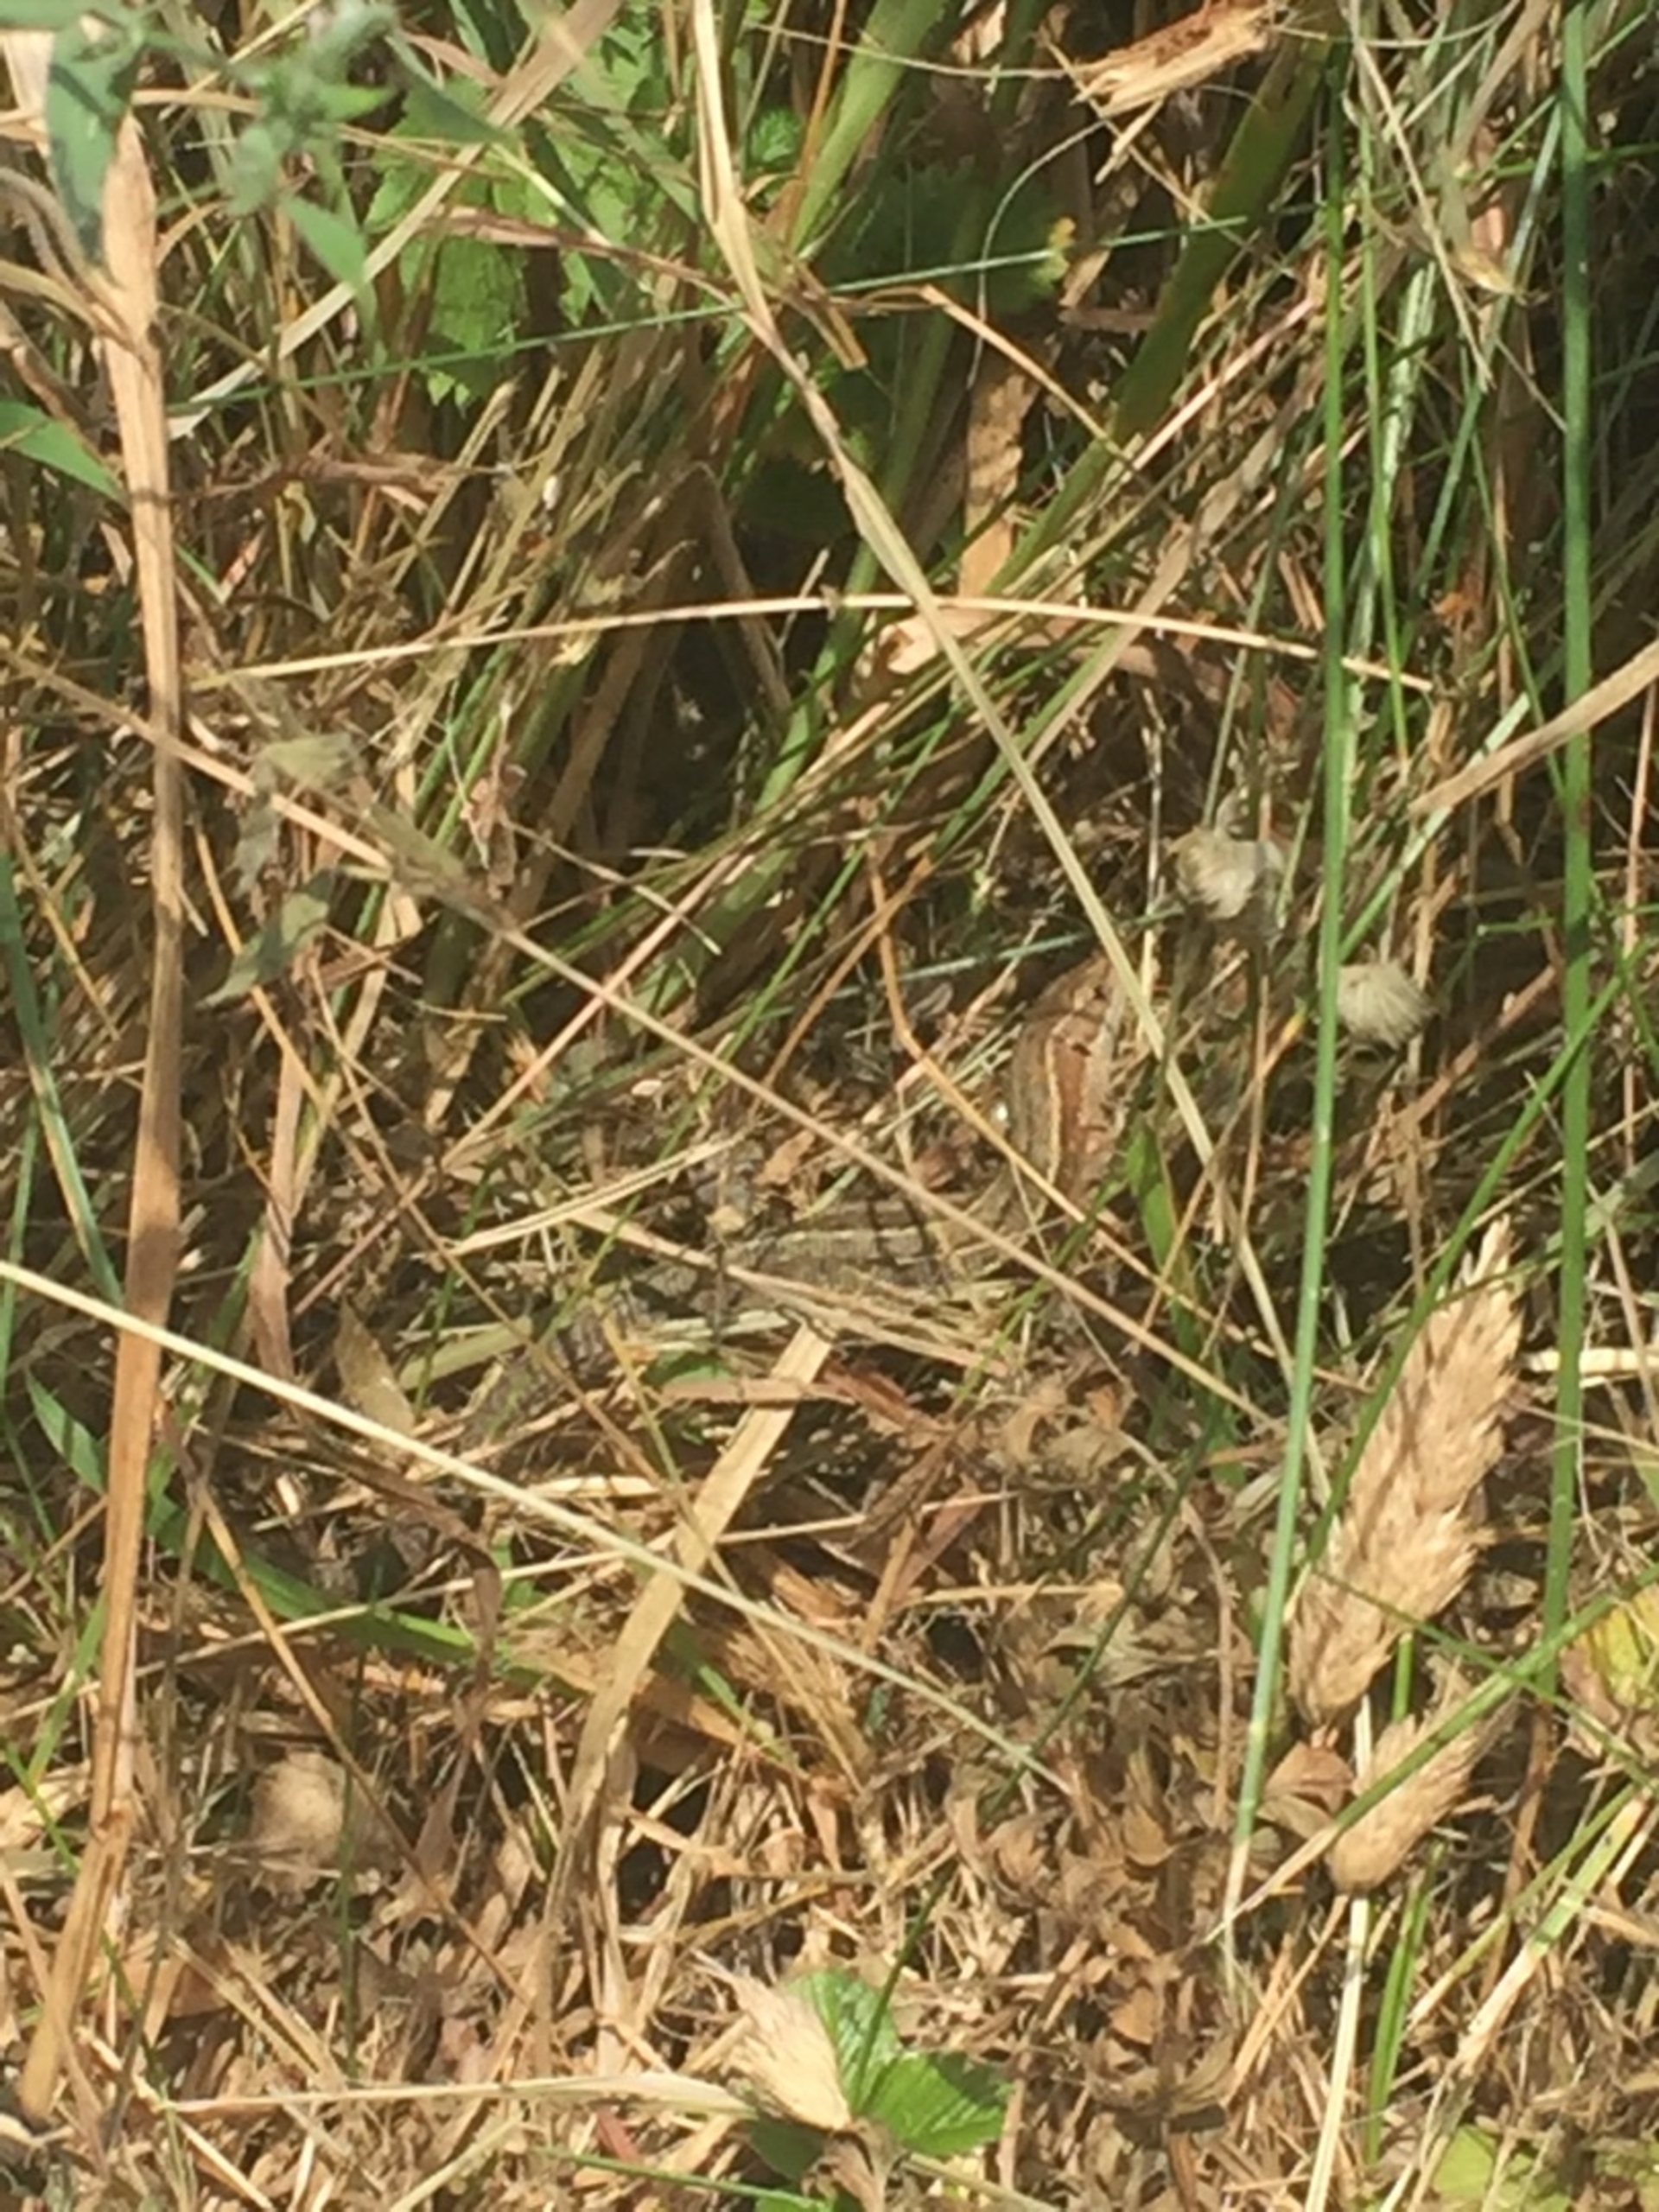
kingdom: Animalia
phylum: Chordata
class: Squamata
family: Lacertidae
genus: Zootoca
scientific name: Zootoca vivipara
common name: Skovfirben
